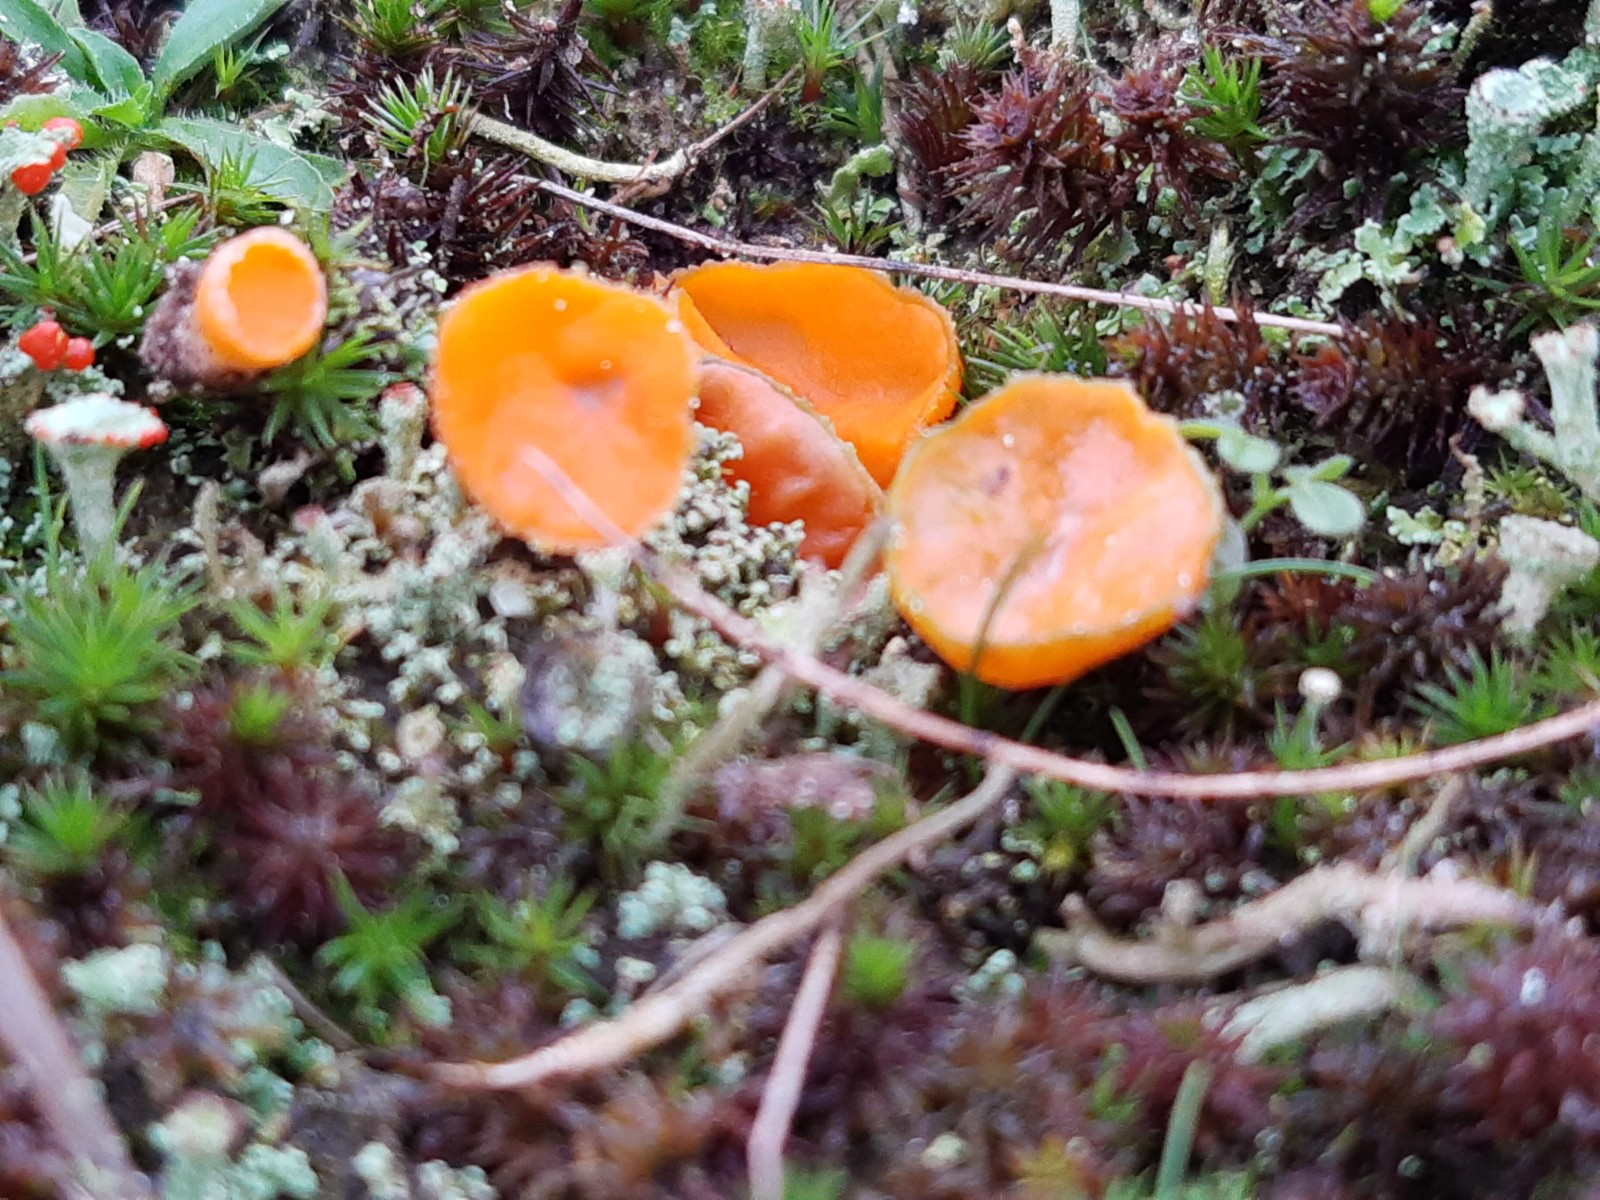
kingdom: Fungi
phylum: Ascomycota
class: Pezizomycetes
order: Pezizales
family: Pyronemataceae
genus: Neottiella
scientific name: Neottiella rutilans
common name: jomfruhår-mosbæger
